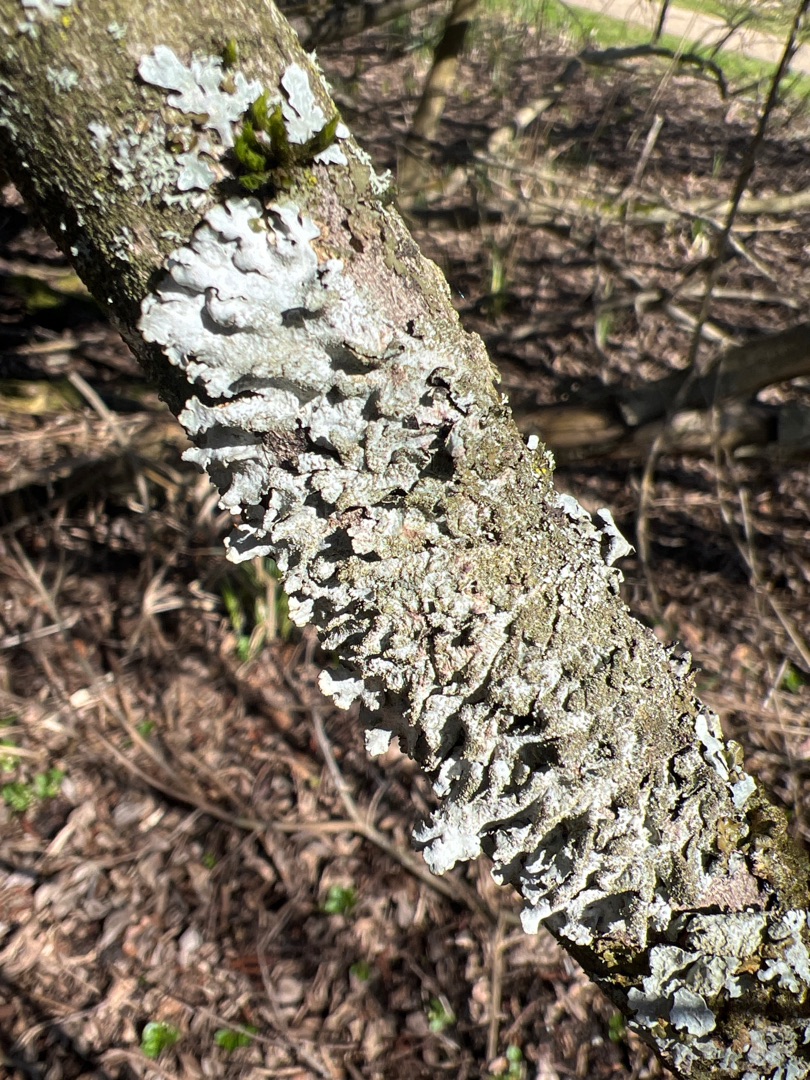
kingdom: Fungi
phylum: Ascomycota
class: Lecanoromycetes
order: Lecanorales
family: Parmeliaceae
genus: Parmelia
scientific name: Parmelia sulcata
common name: Rynket skållav
